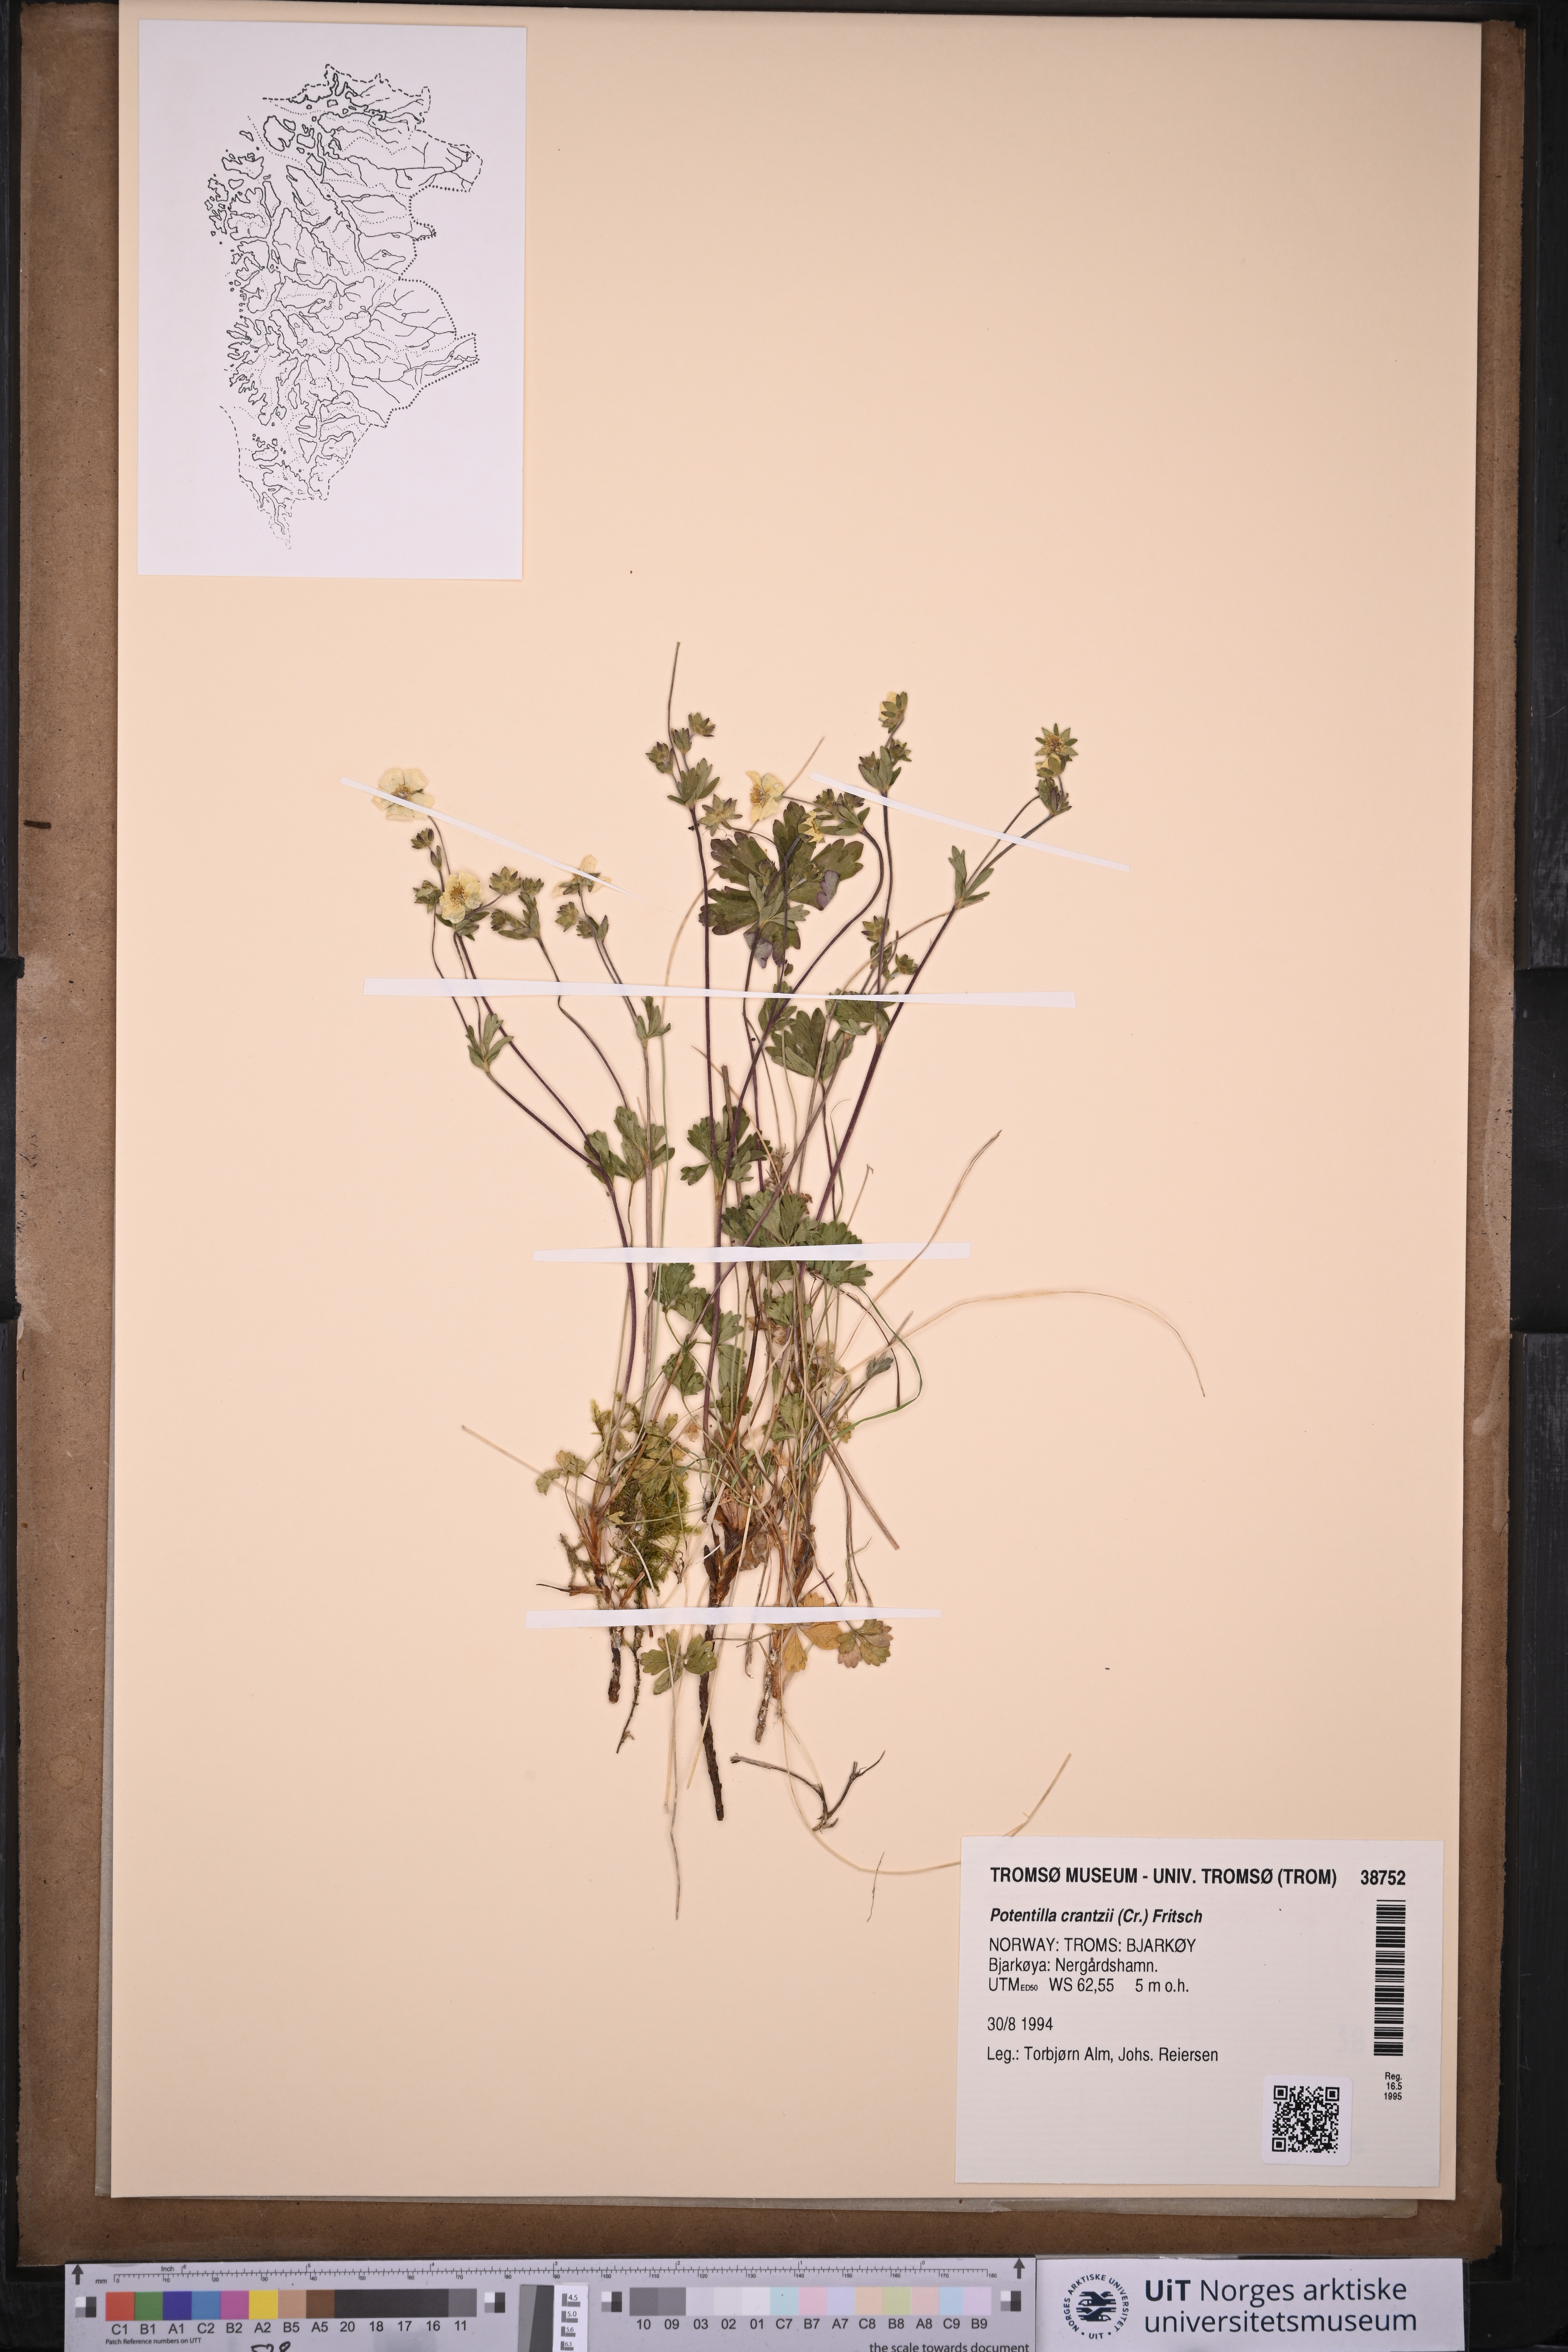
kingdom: Plantae
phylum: Tracheophyta
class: Magnoliopsida
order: Rosales
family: Rosaceae
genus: Potentilla
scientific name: Potentilla crantzii
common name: Alpine cinquefoil
